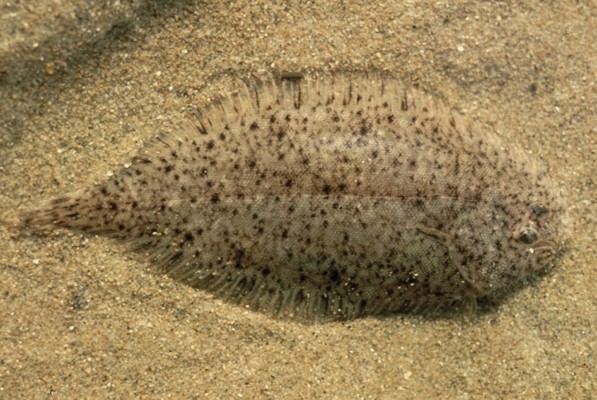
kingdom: Animalia
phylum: Chordata
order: Pleuronectiformes
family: Soleidae
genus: Pegusa
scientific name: Pegusa nasuta
